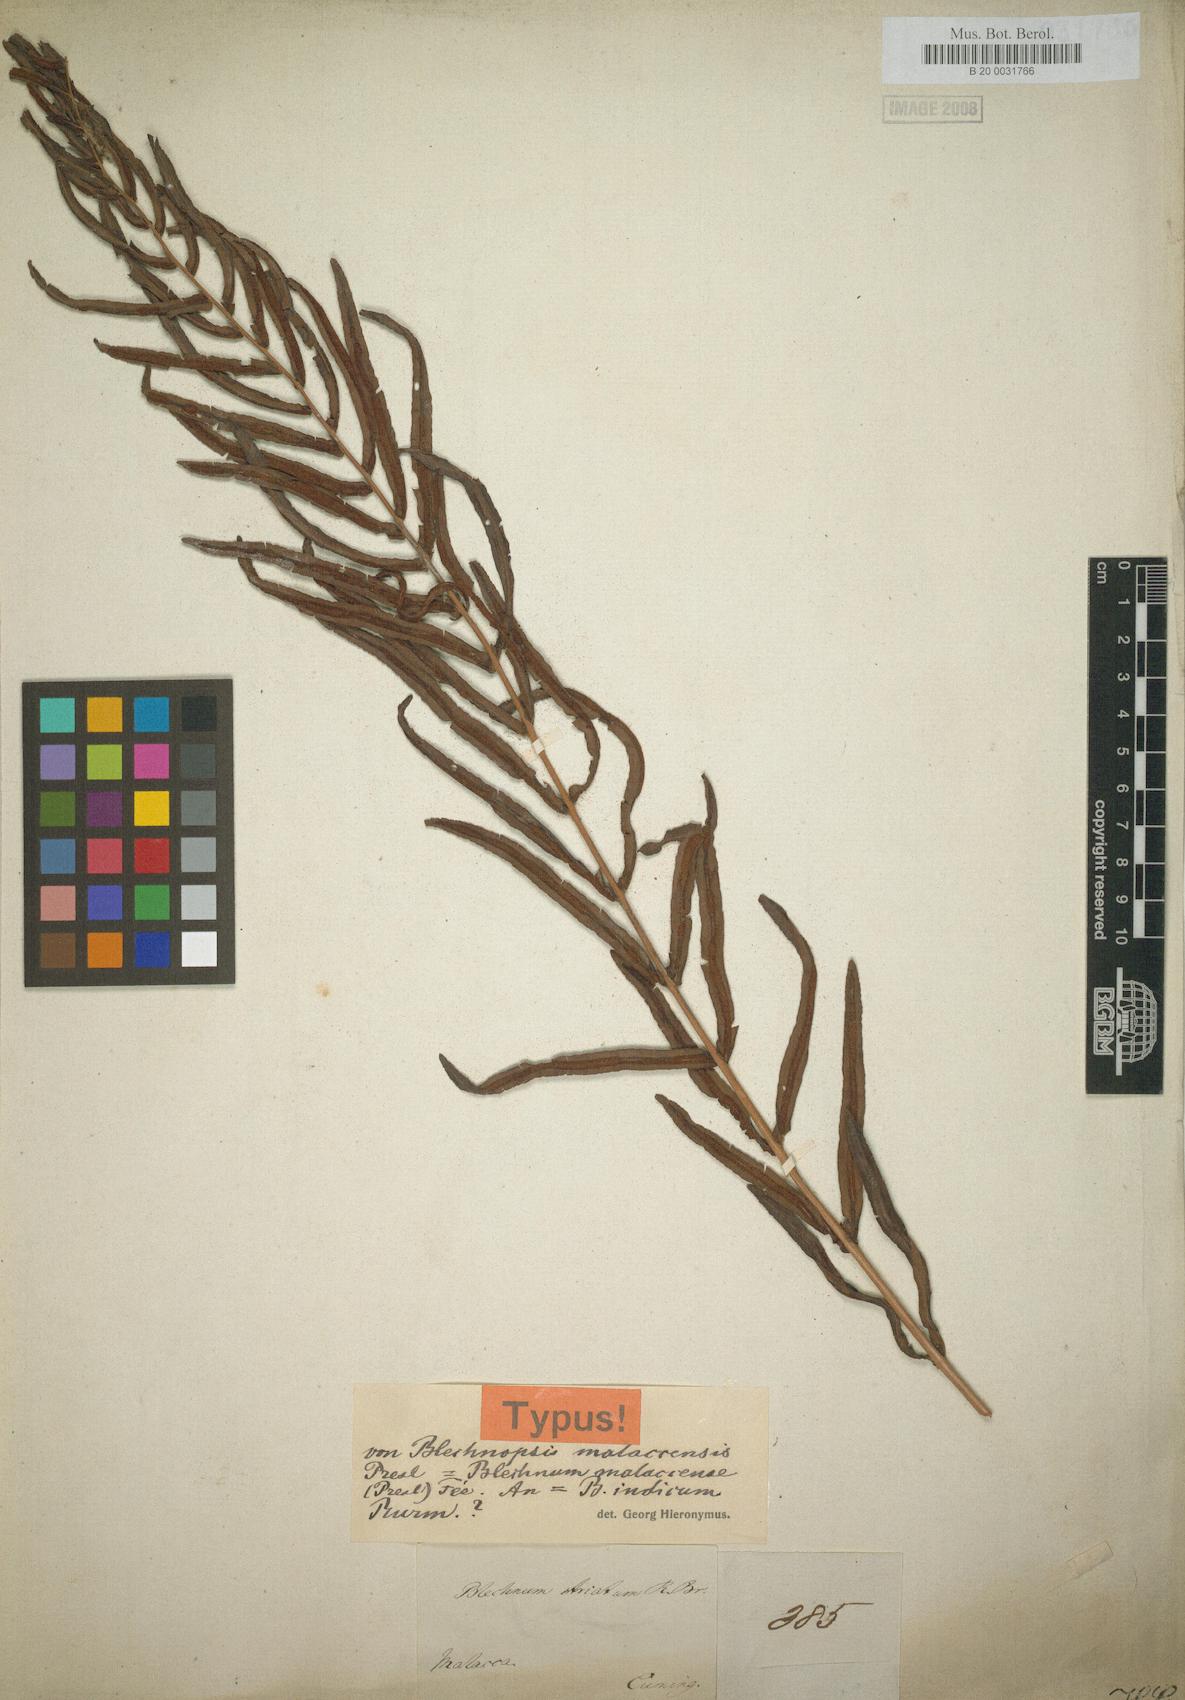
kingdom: Plantae
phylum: Tracheophyta
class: Polypodiopsida
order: Polypodiales
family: Blechnaceae
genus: Telmatoblechnum
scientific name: Telmatoblechnum indicum
